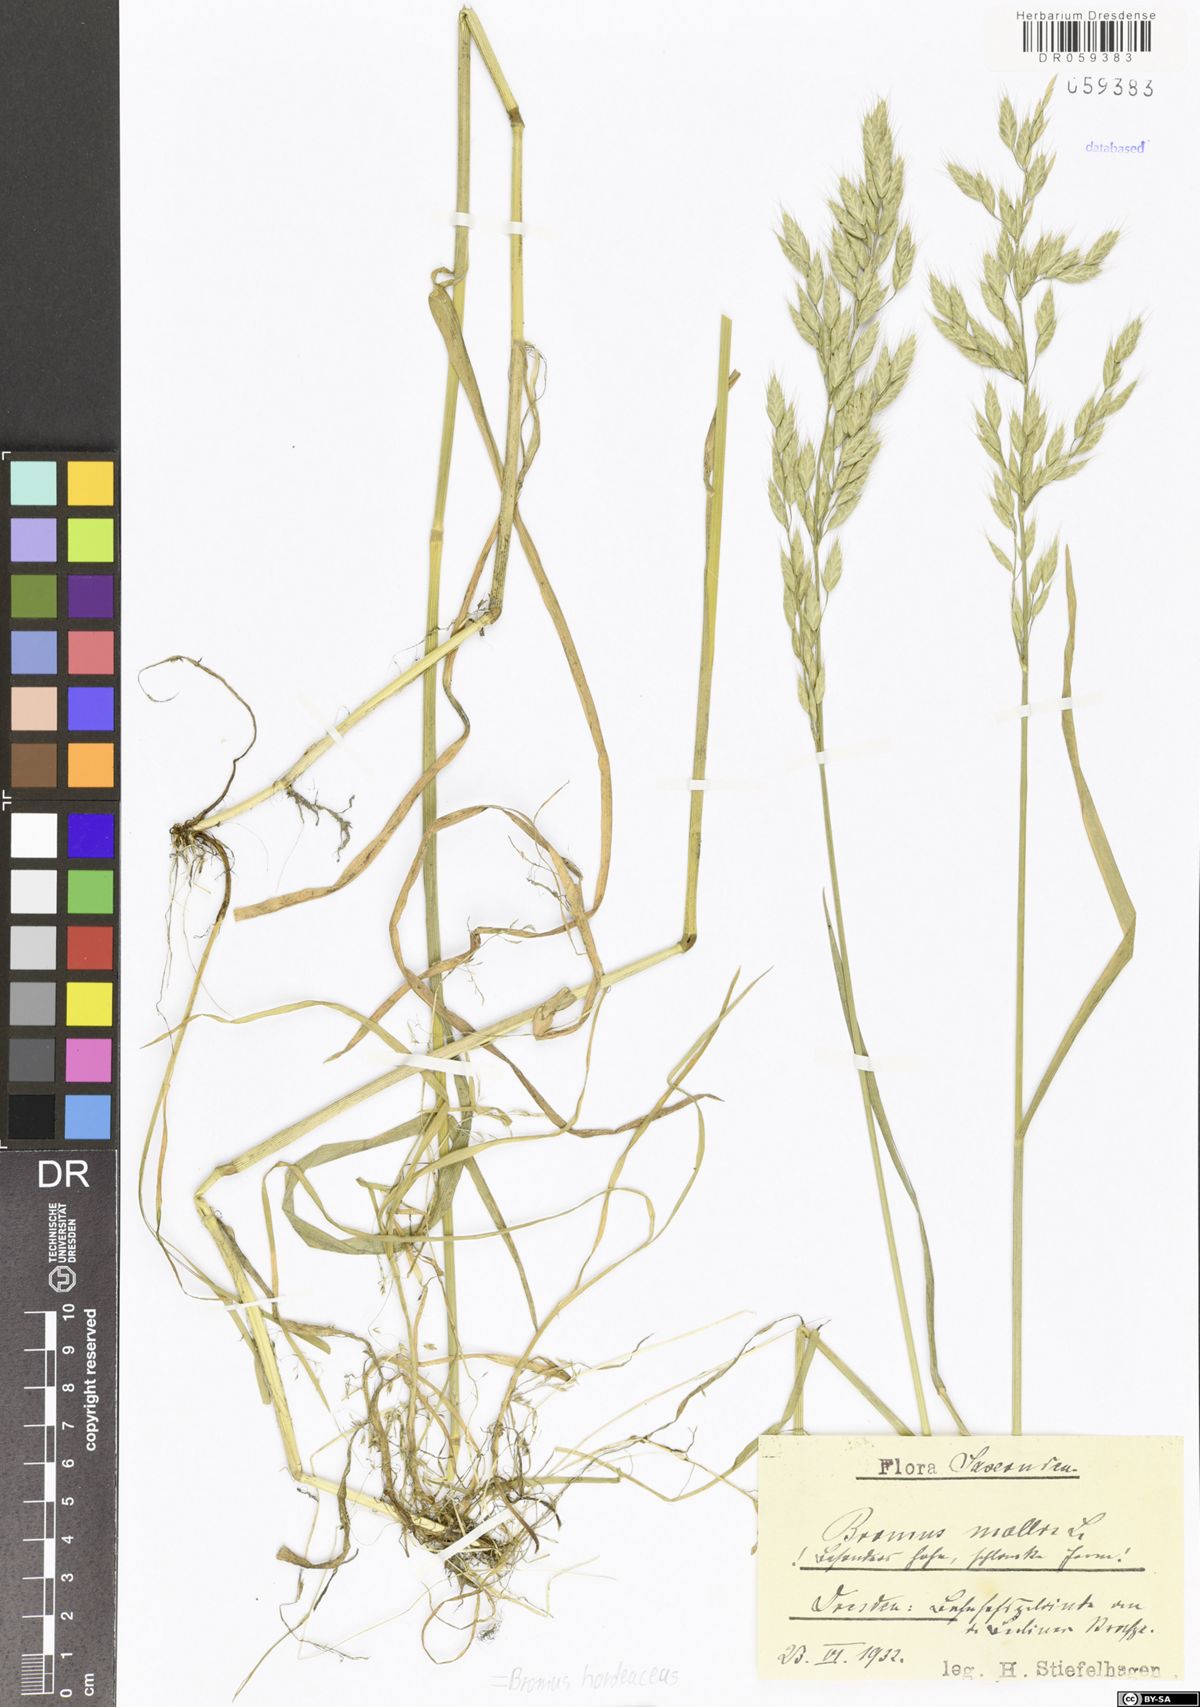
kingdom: Plantae
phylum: Tracheophyta
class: Liliopsida
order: Poales
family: Poaceae
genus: Bromus
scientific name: Bromus hordeaceus
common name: Soft brome
